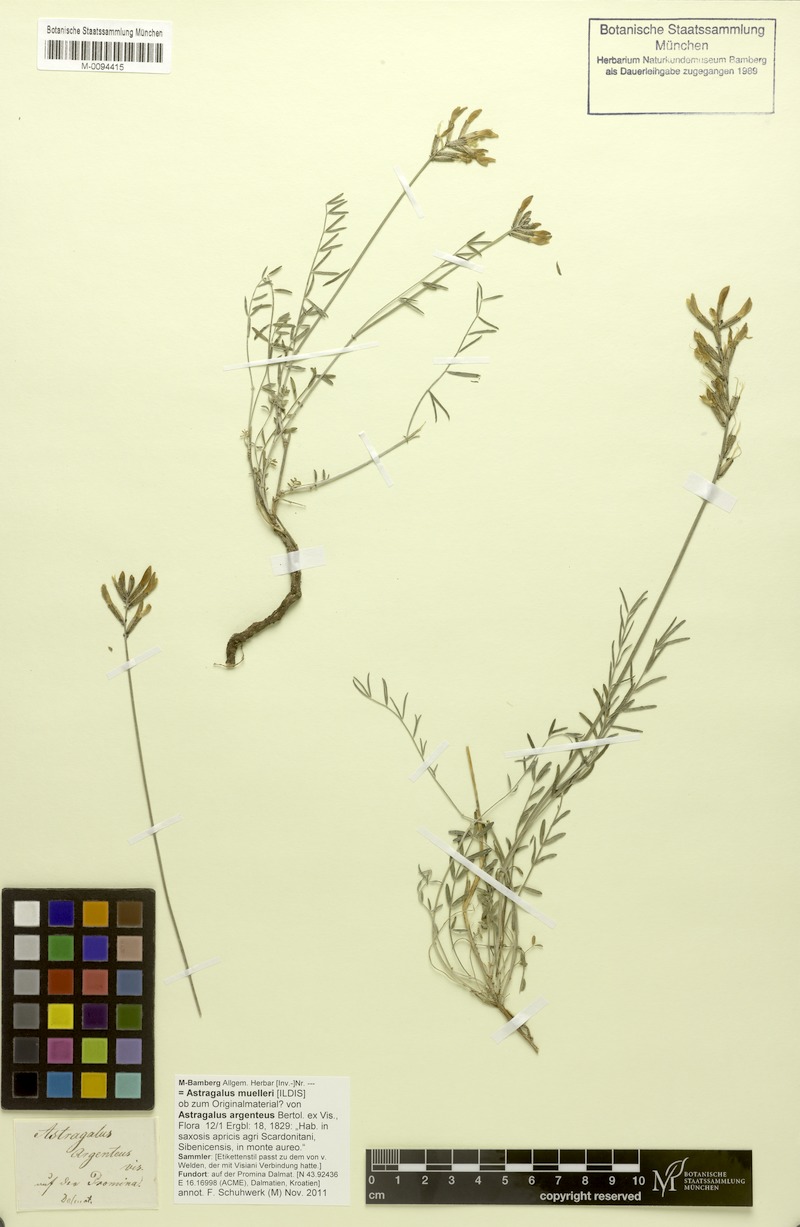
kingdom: Plantae
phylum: Tracheophyta
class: Magnoliopsida
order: Fabales
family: Fabaceae
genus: Astragalus
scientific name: Astragalus muelleri
